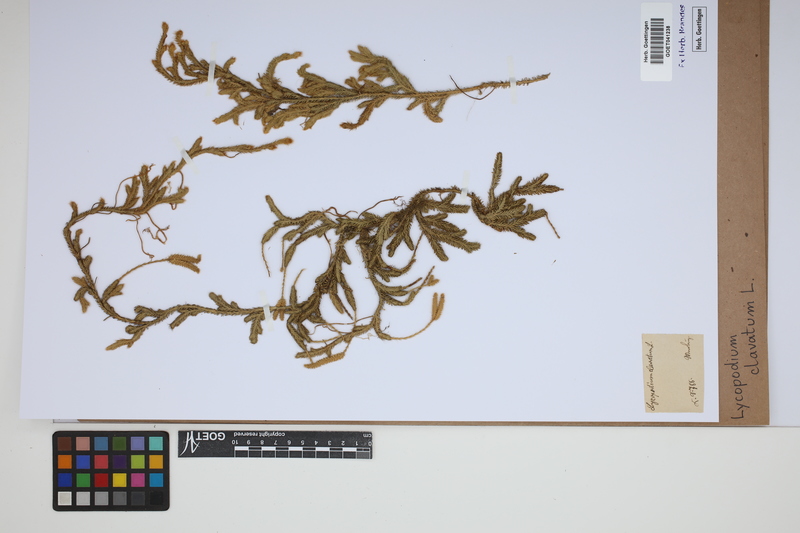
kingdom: Plantae
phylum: Tracheophyta
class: Lycopodiopsida
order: Lycopodiales
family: Lycopodiaceae
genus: Lycopodium
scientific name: Lycopodium clavatum
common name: Stag's-horn clubmoss
